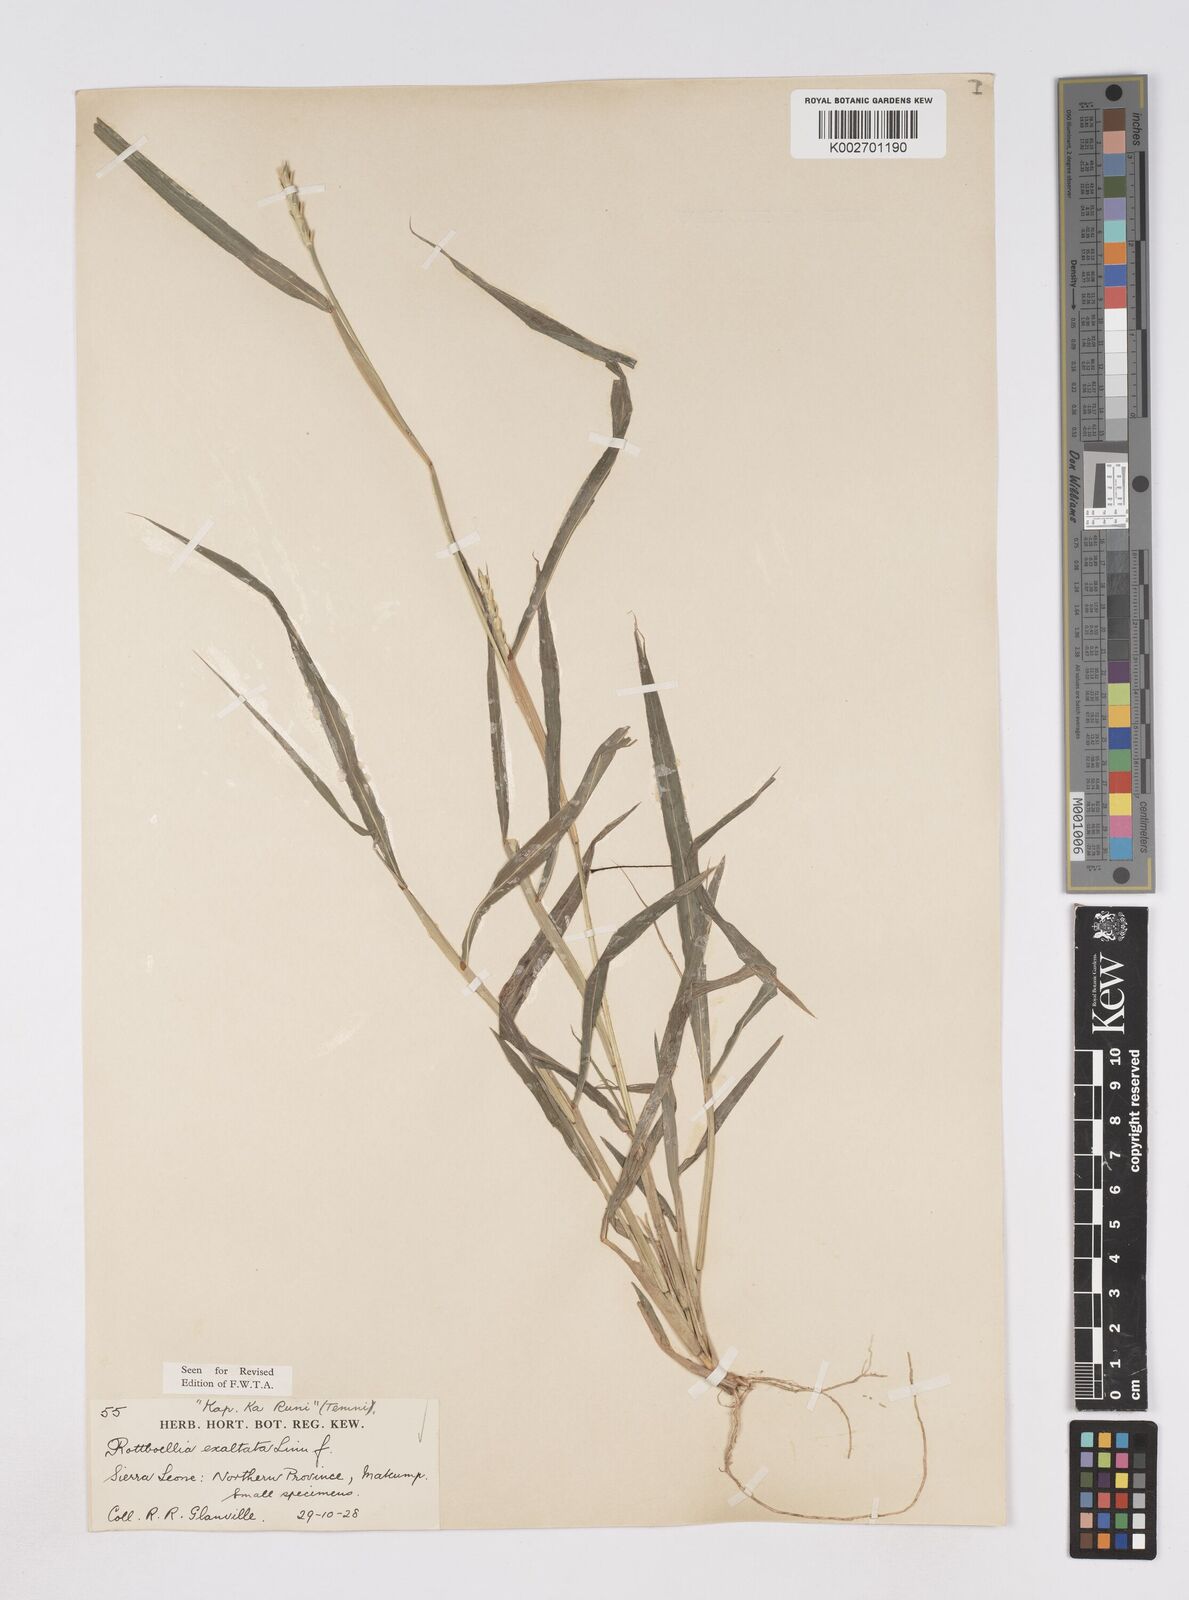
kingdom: Plantae
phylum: Tracheophyta
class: Liliopsida
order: Poales
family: Poaceae
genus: Ophiuros
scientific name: Ophiuros exaltatus
